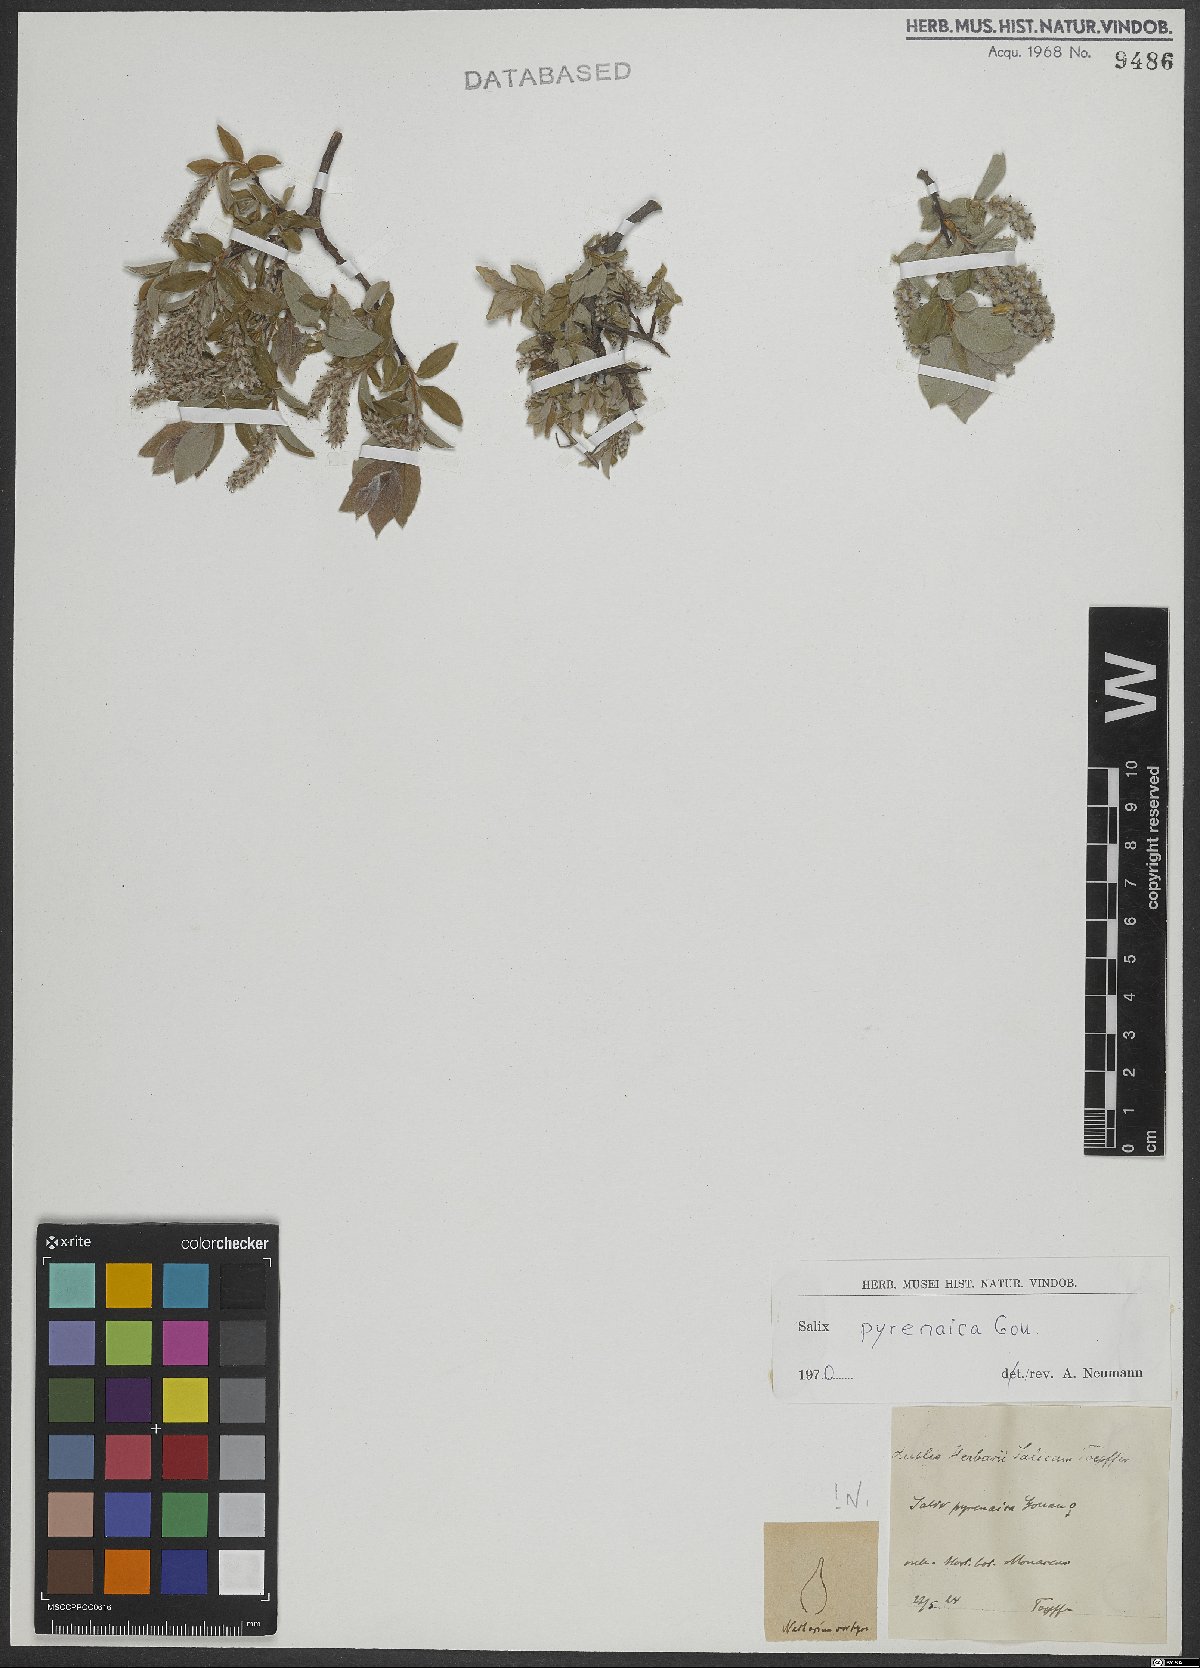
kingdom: Plantae
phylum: Tracheophyta
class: Magnoliopsida
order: Malpighiales
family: Salicaceae
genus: Salix
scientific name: Salix pyrenaica
